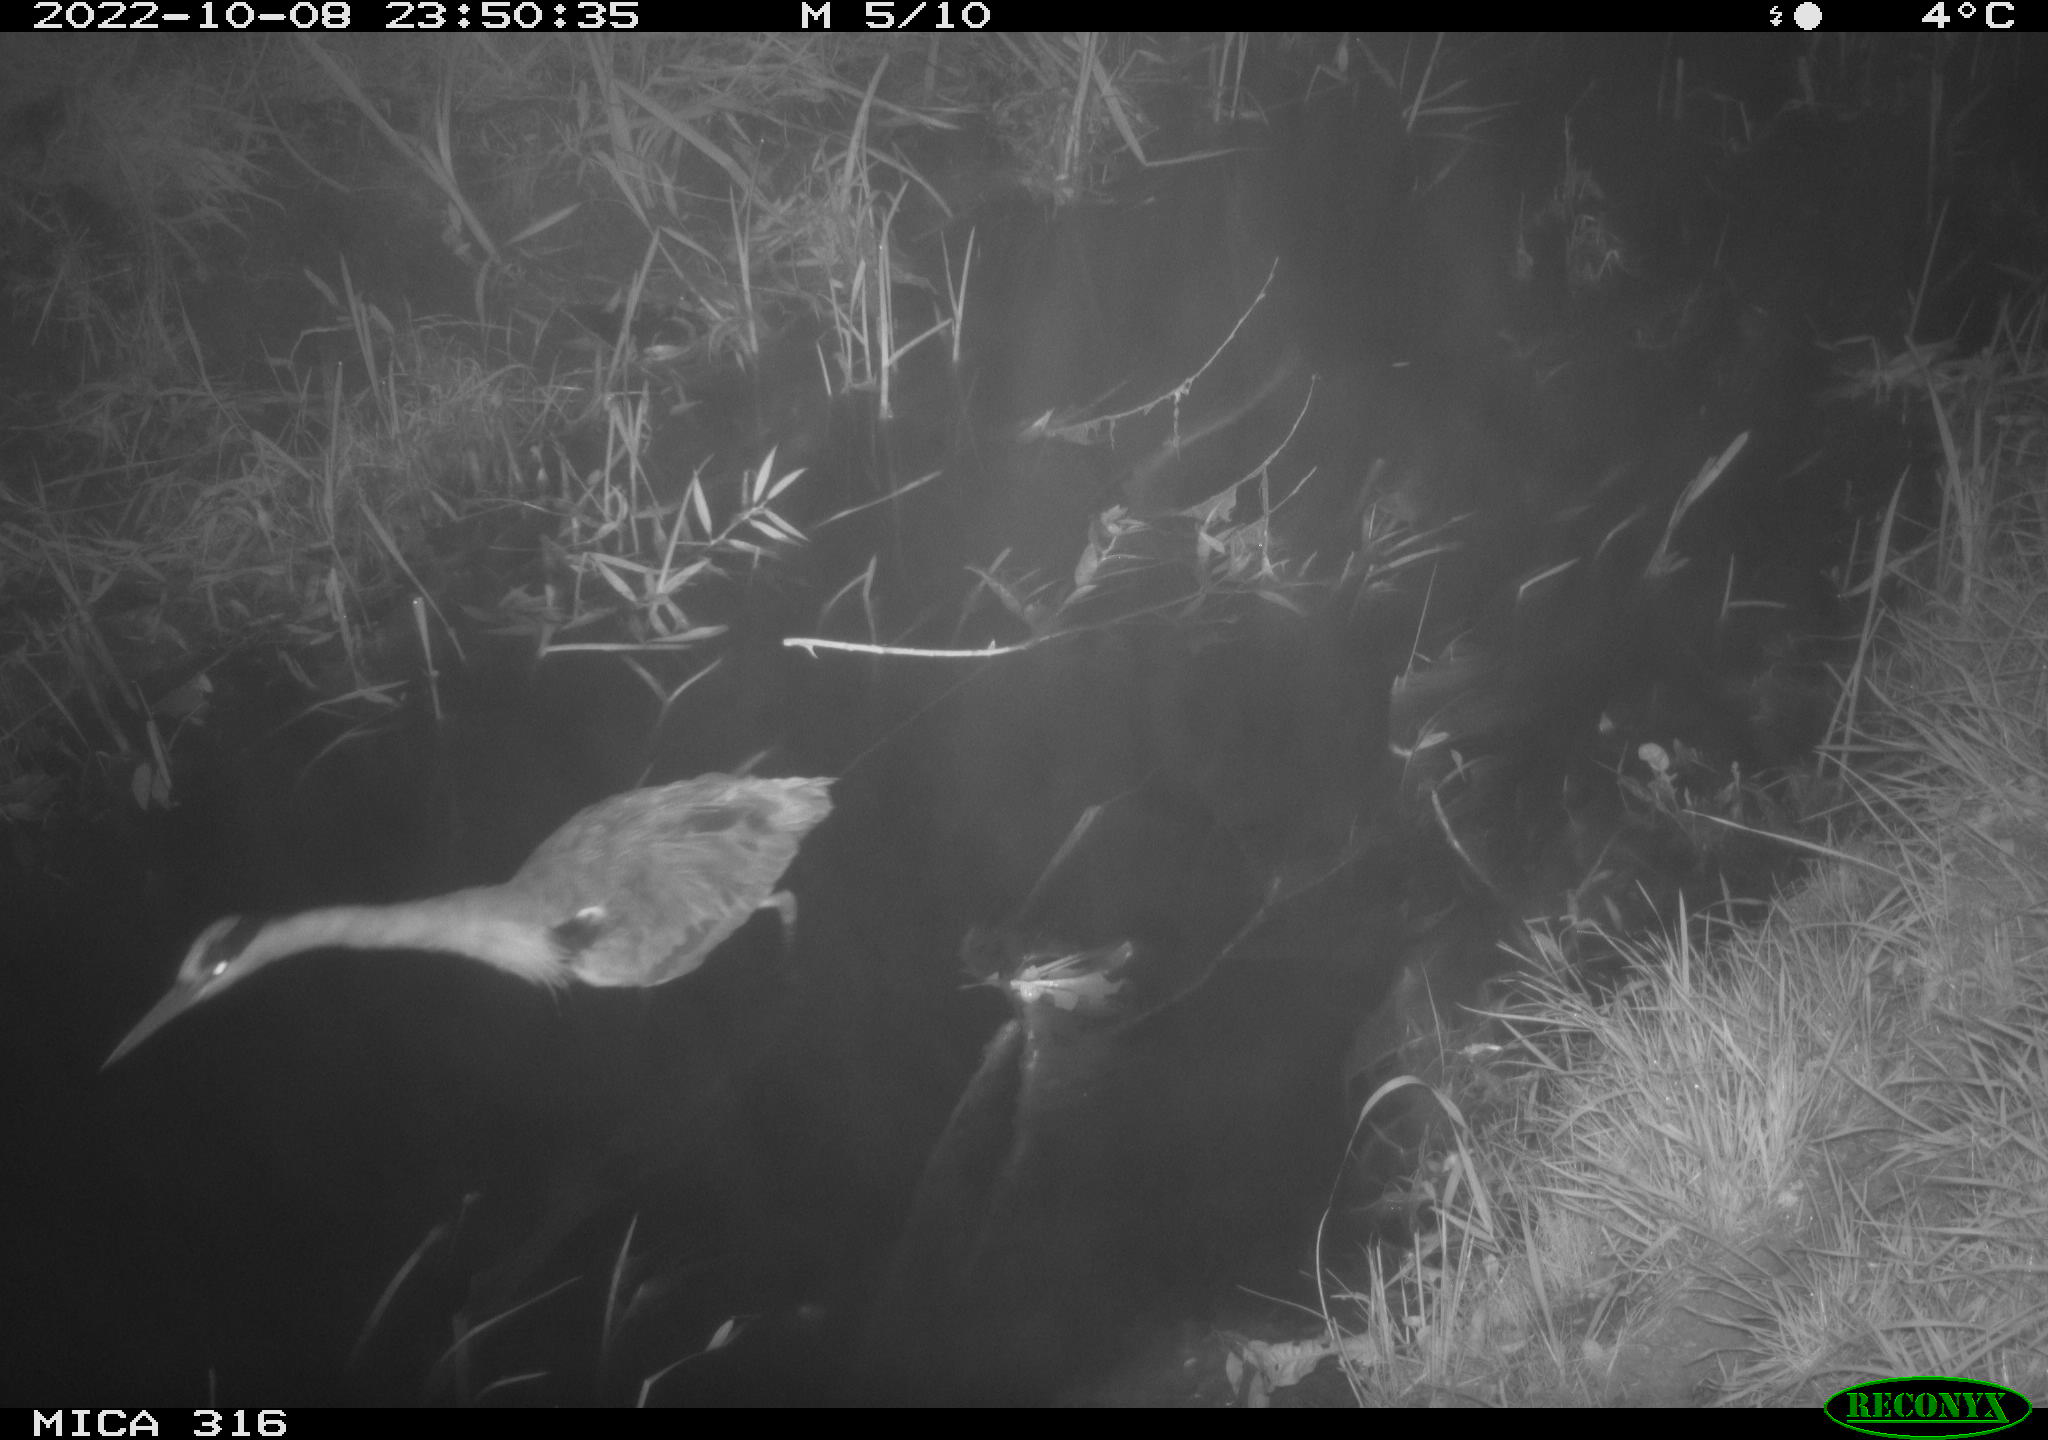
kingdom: Animalia
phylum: Chordata
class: Aves
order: Pelecaniformes
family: Ardeidae
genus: Ardea
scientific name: Ardea cinerea
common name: Grey heron
